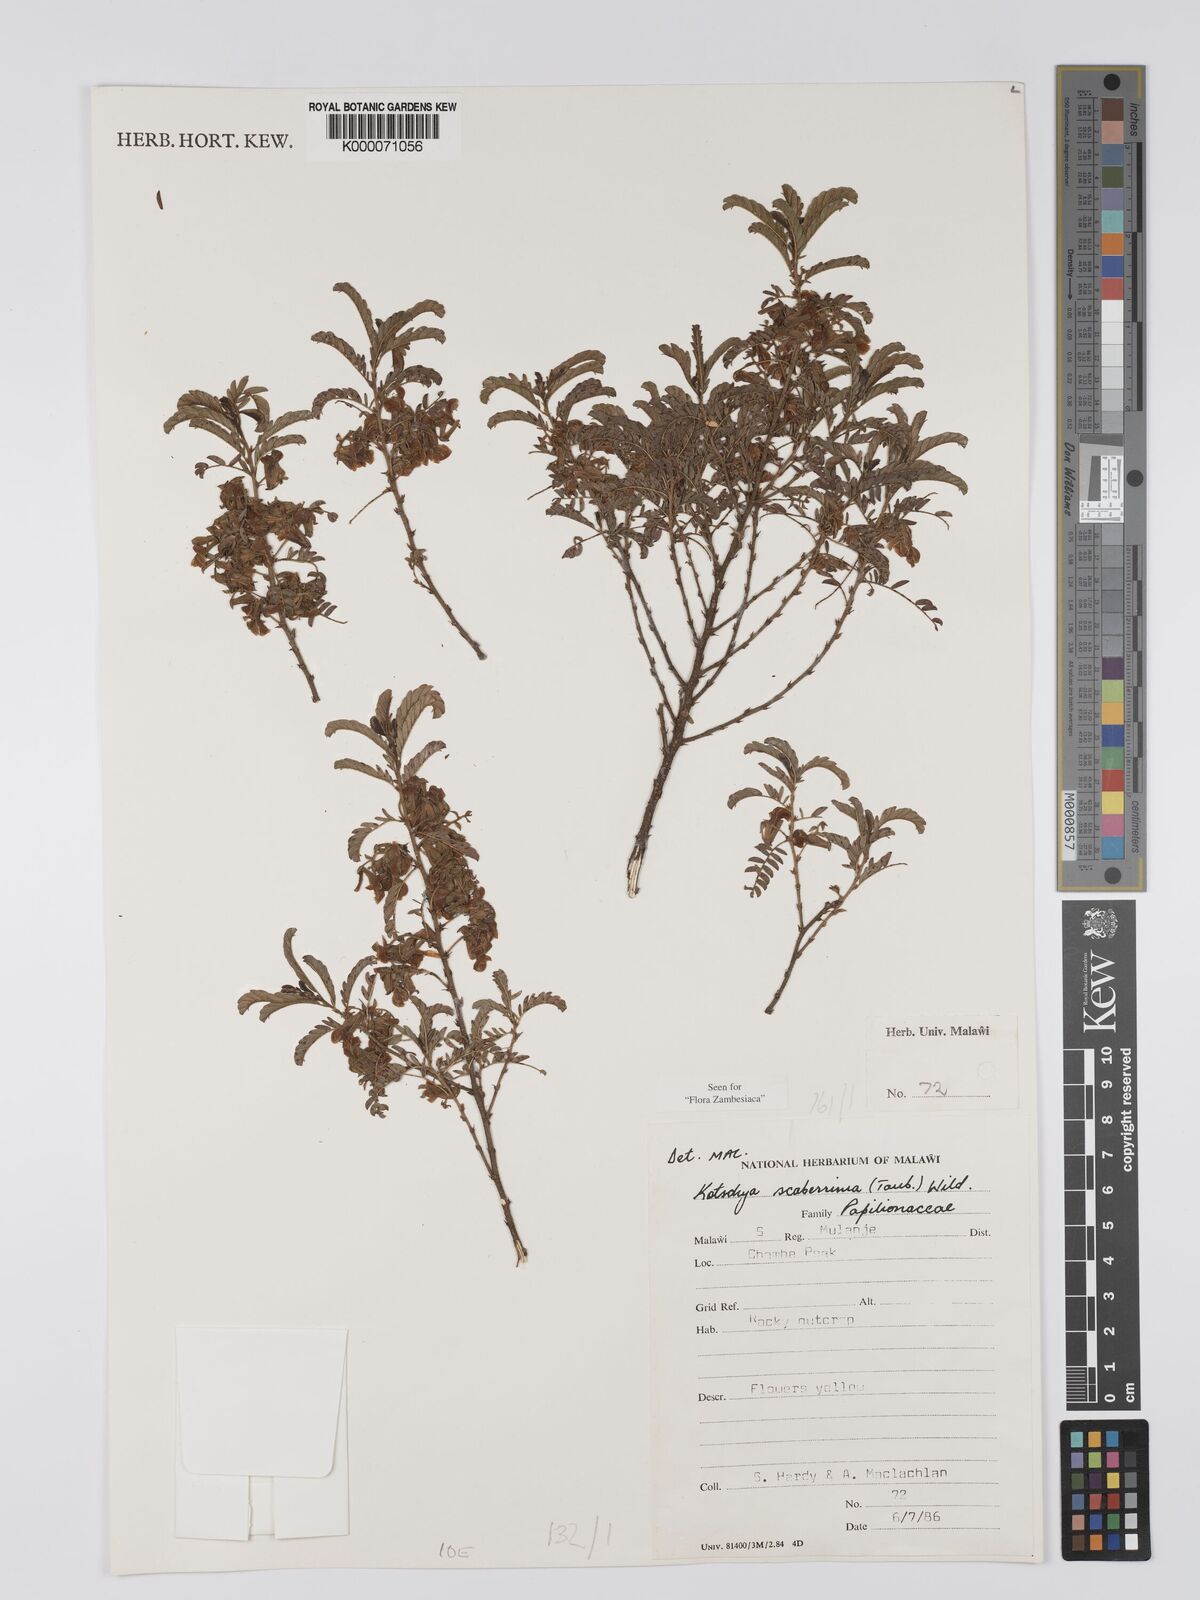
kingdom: Plantae
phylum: Tracheophyta
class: Magnoliopsida
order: Fabales
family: Fabaceae
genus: Kotschya
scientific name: Kotschya scaberrima
